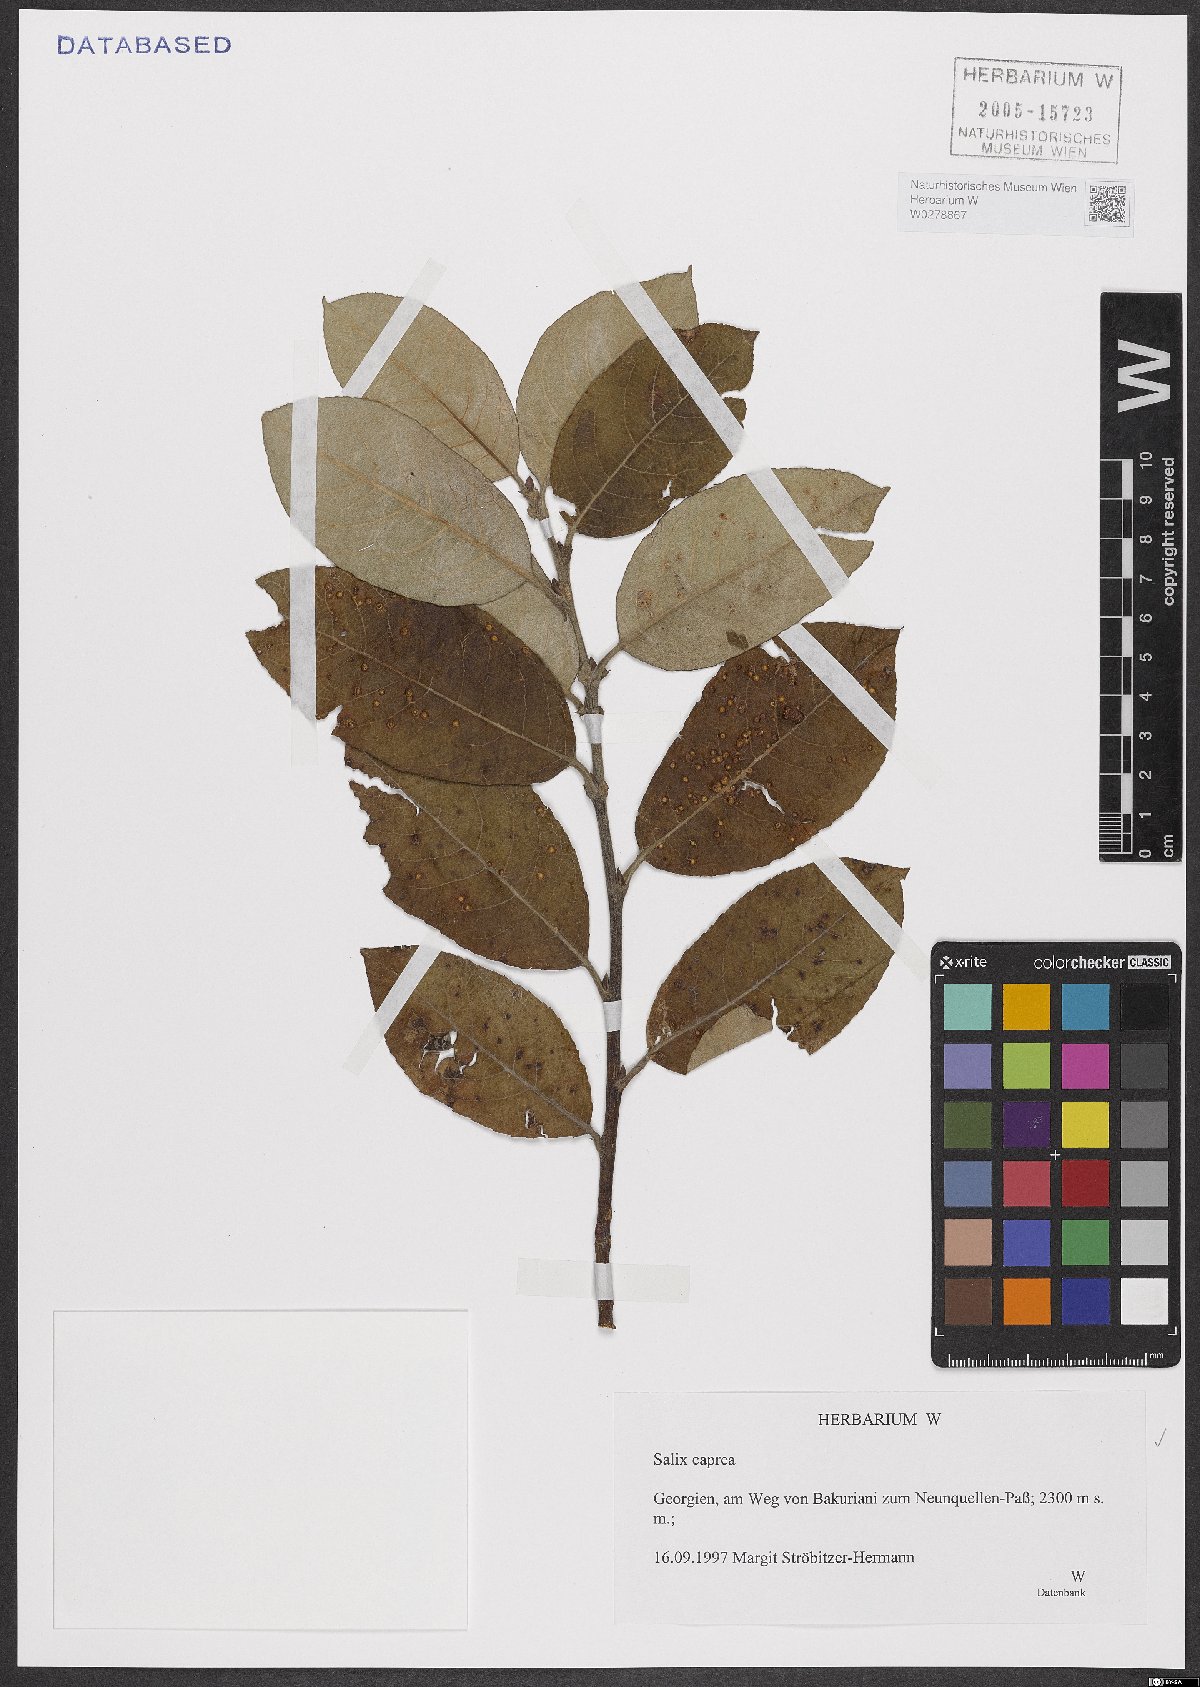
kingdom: Plantae
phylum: Tracheophyta
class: Magnoliopsida
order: Malpighiales
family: Salicaceae
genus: Salix
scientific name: Salix caprea
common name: Goat willow
